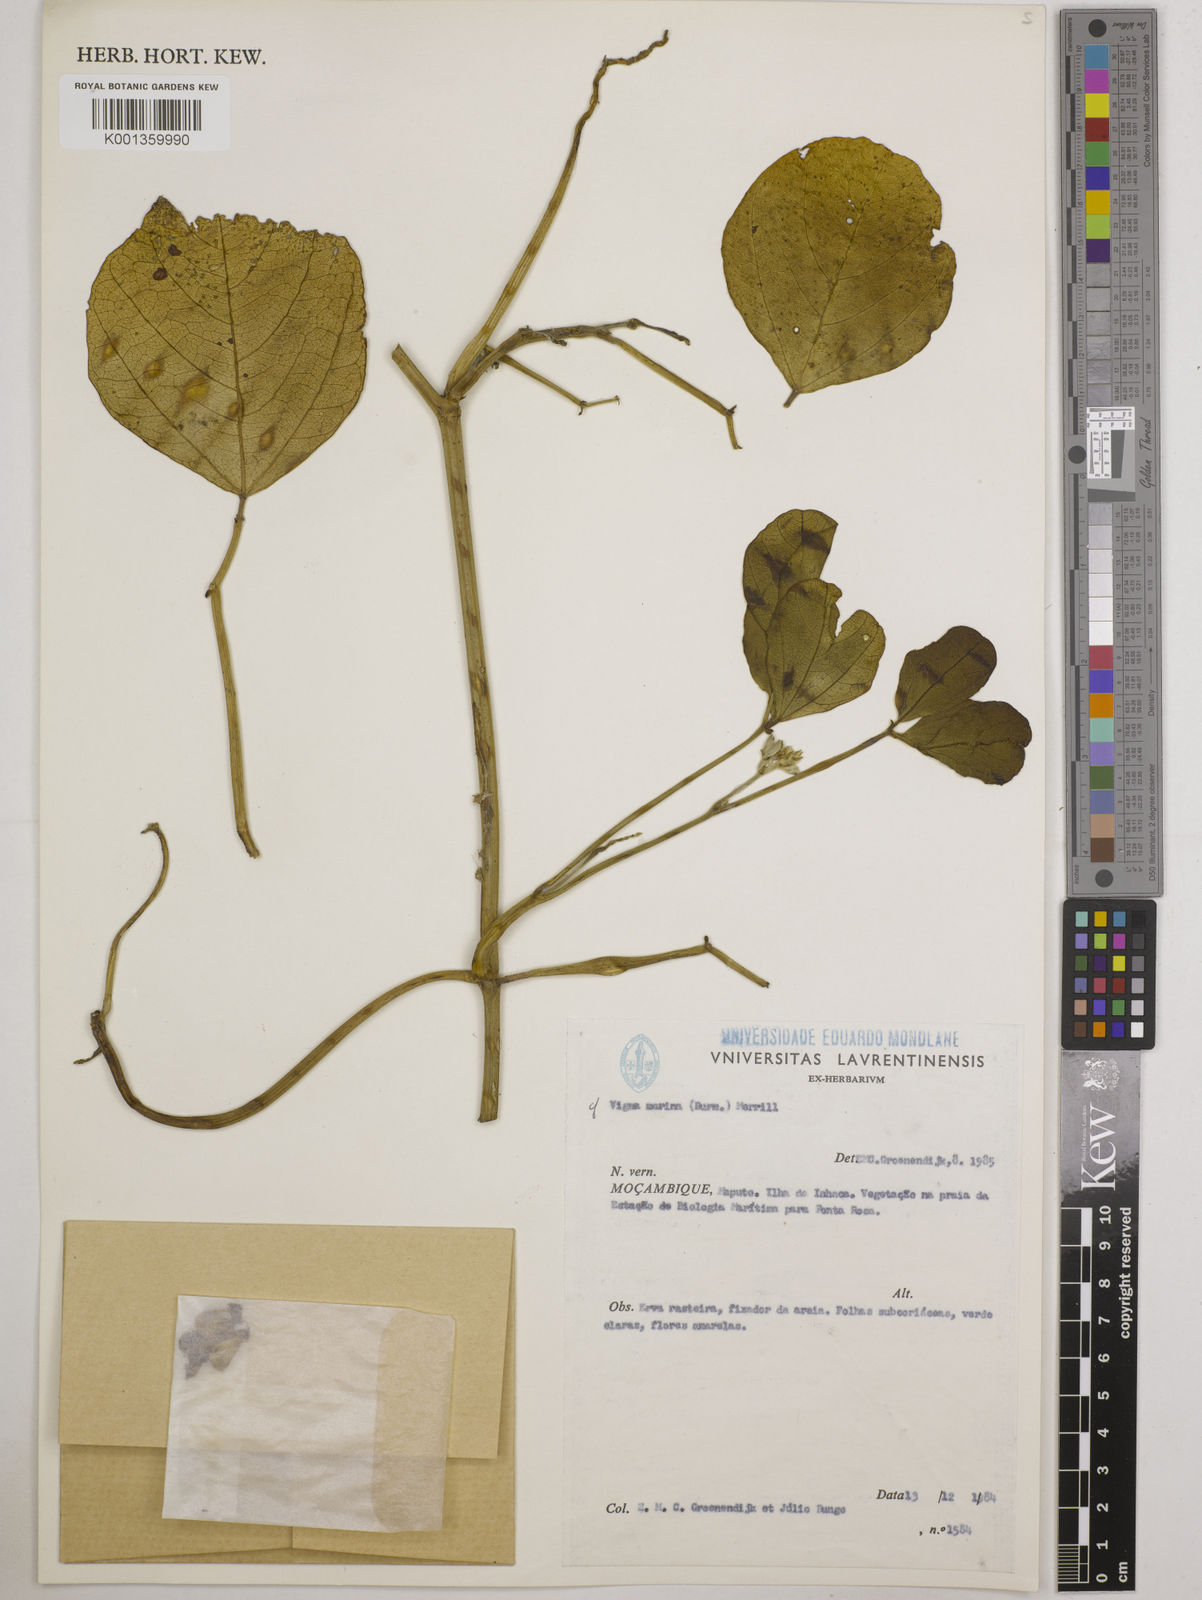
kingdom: Plantae
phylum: Tracheophyta
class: Magnoliopsida
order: Fabales
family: Fabaceae
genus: Vigna
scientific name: Vigna marina
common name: Dune-bean
